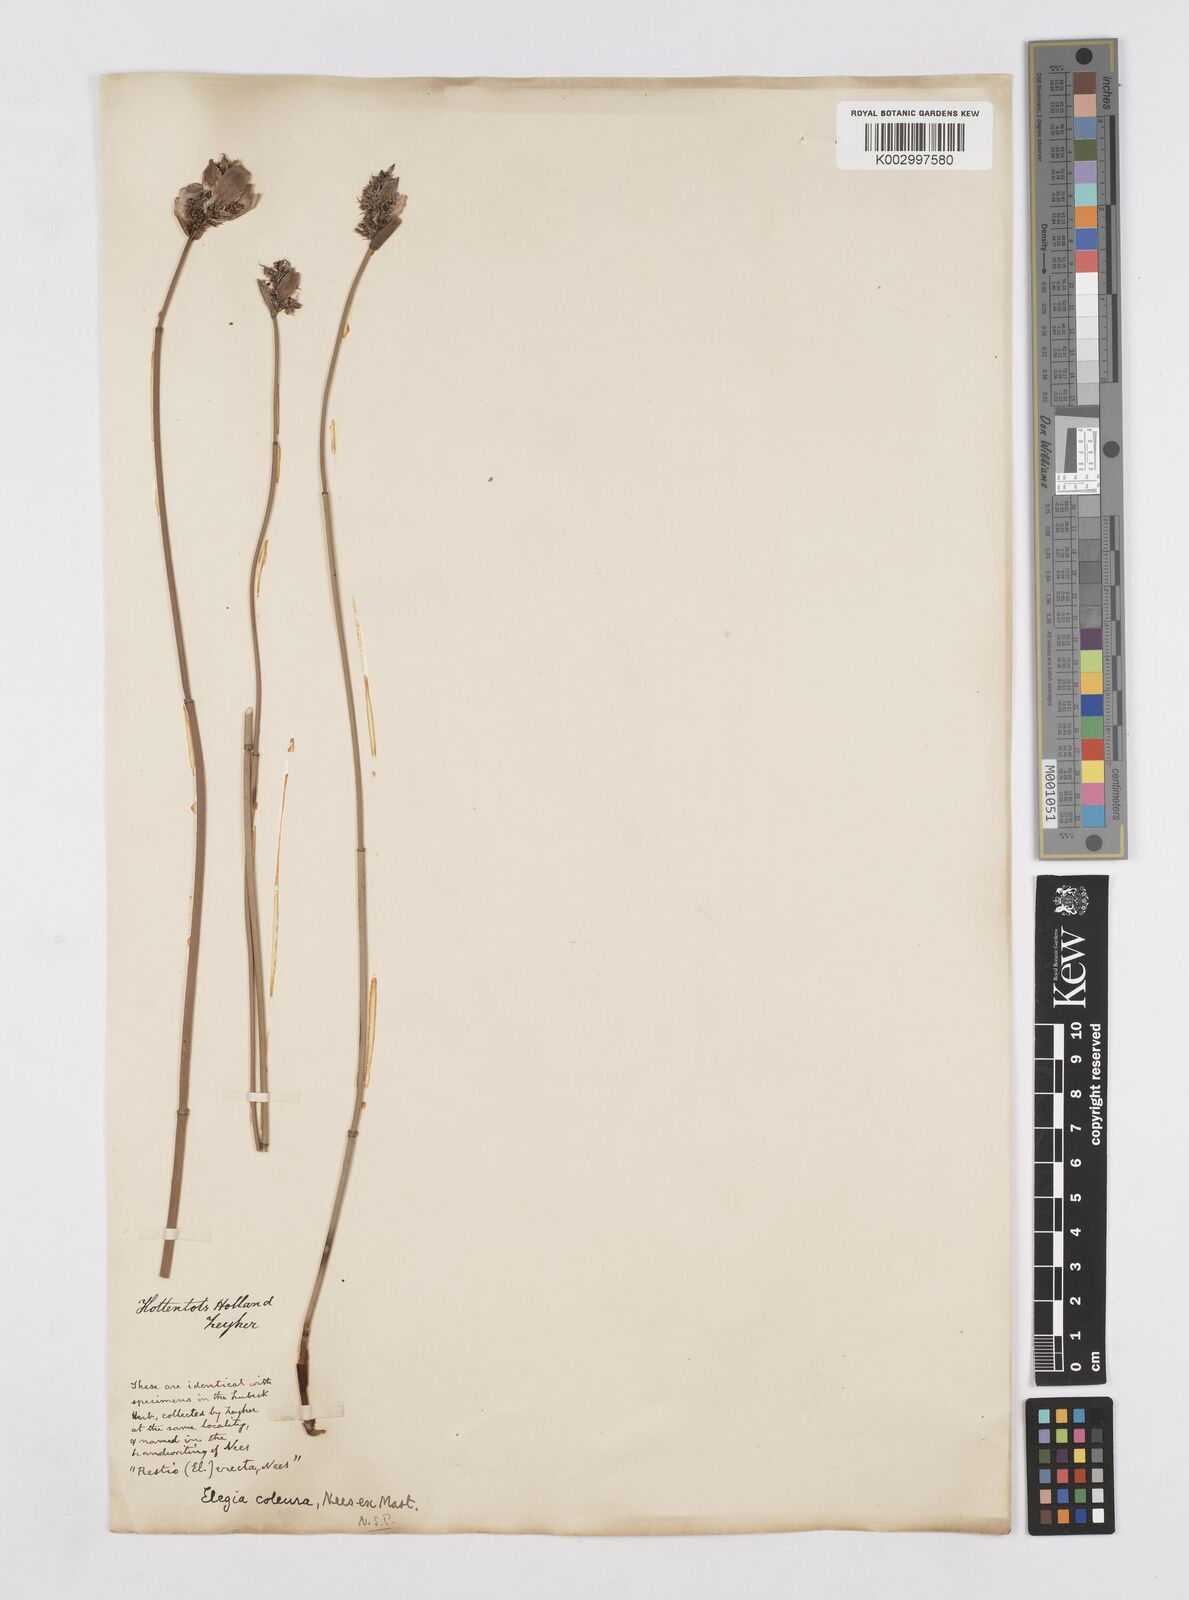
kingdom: Plantae
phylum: Tracheophyta
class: Liliopsida
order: Poales
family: Restionaceae
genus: Elegia
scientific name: Elegia coleura
